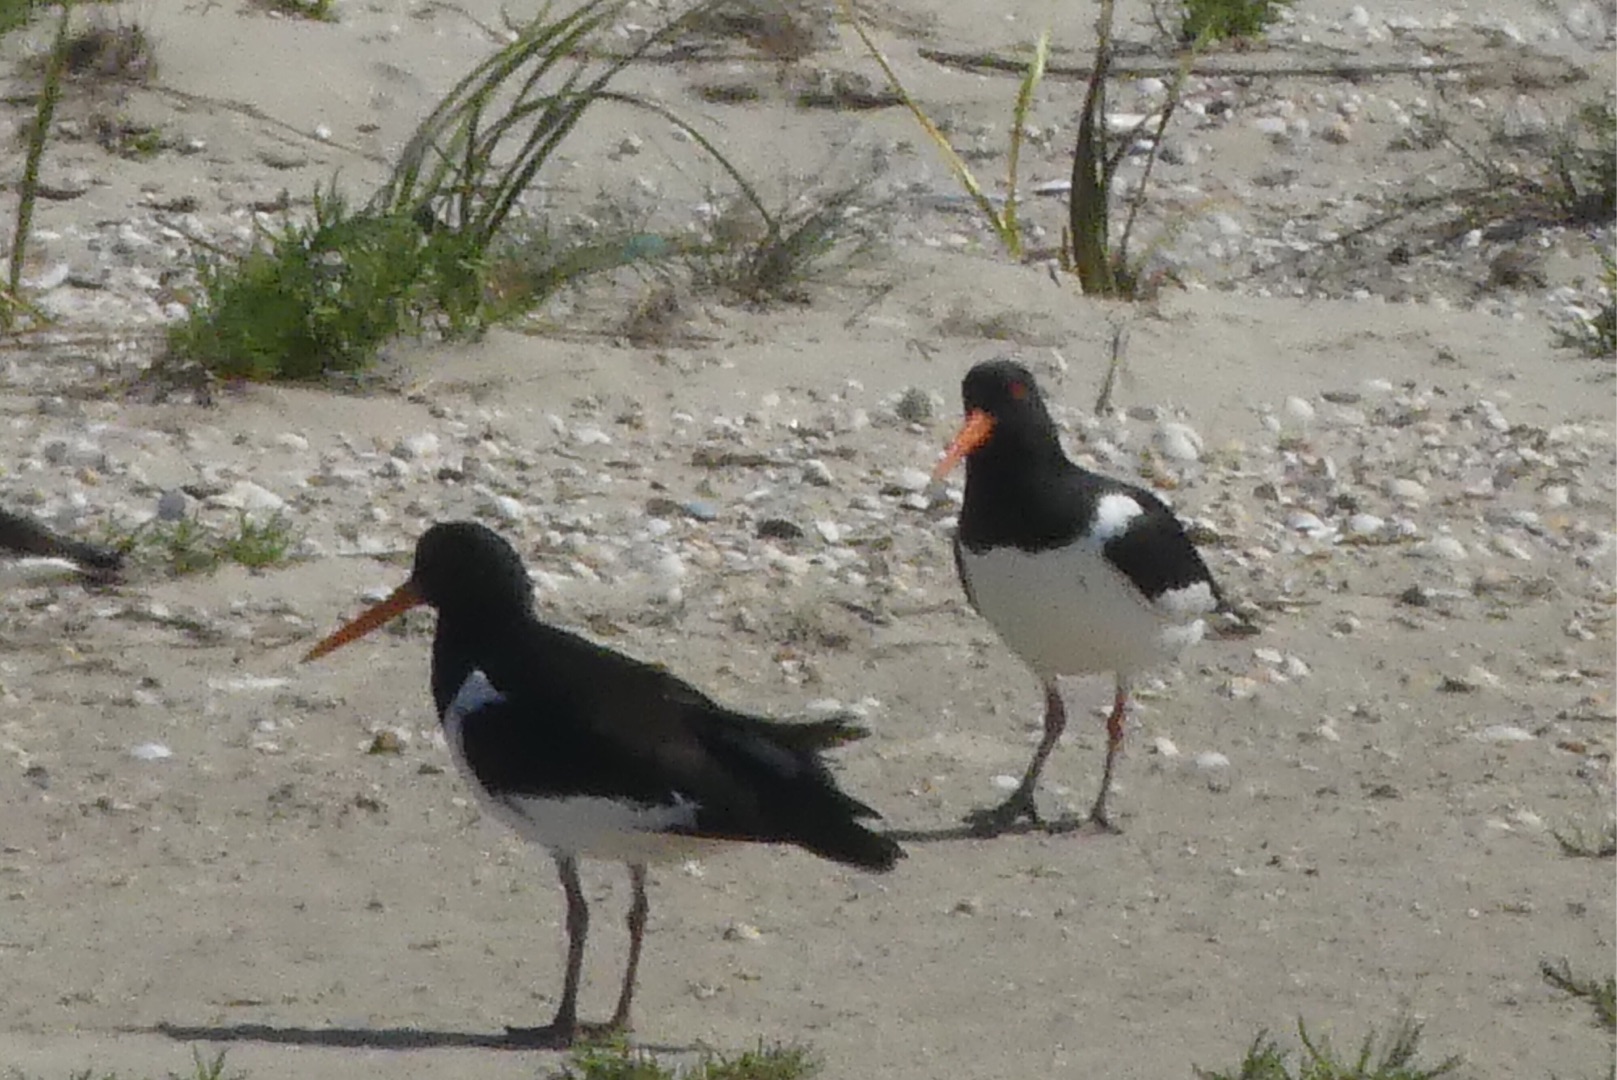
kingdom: Animalia
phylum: Chordata
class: Aves
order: Charadriiformes
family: Haematopodidae
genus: Haematopus
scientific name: Haematopus ostralegus
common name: Strandskade
